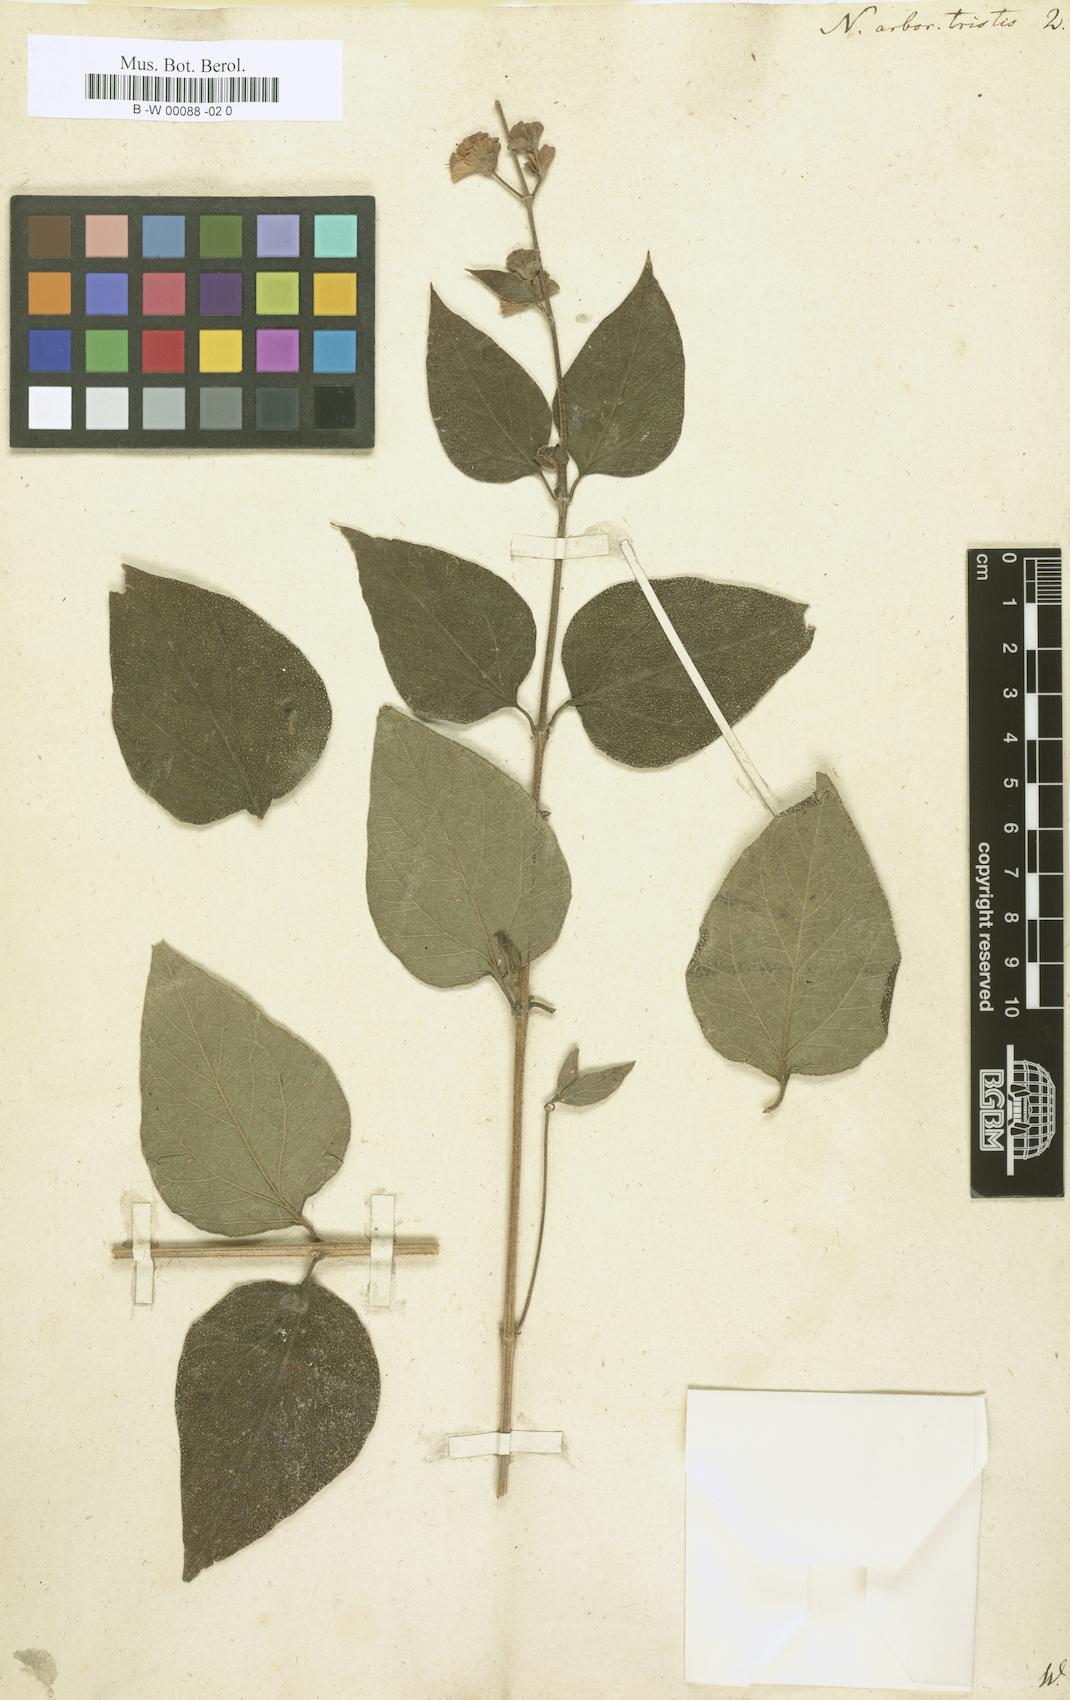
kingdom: Plantae
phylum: Tracheophyta
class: Magnoliopsida
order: Lamiales
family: Oleaceae
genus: Nyctanthes
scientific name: Nyctanthes arbor-tristis
